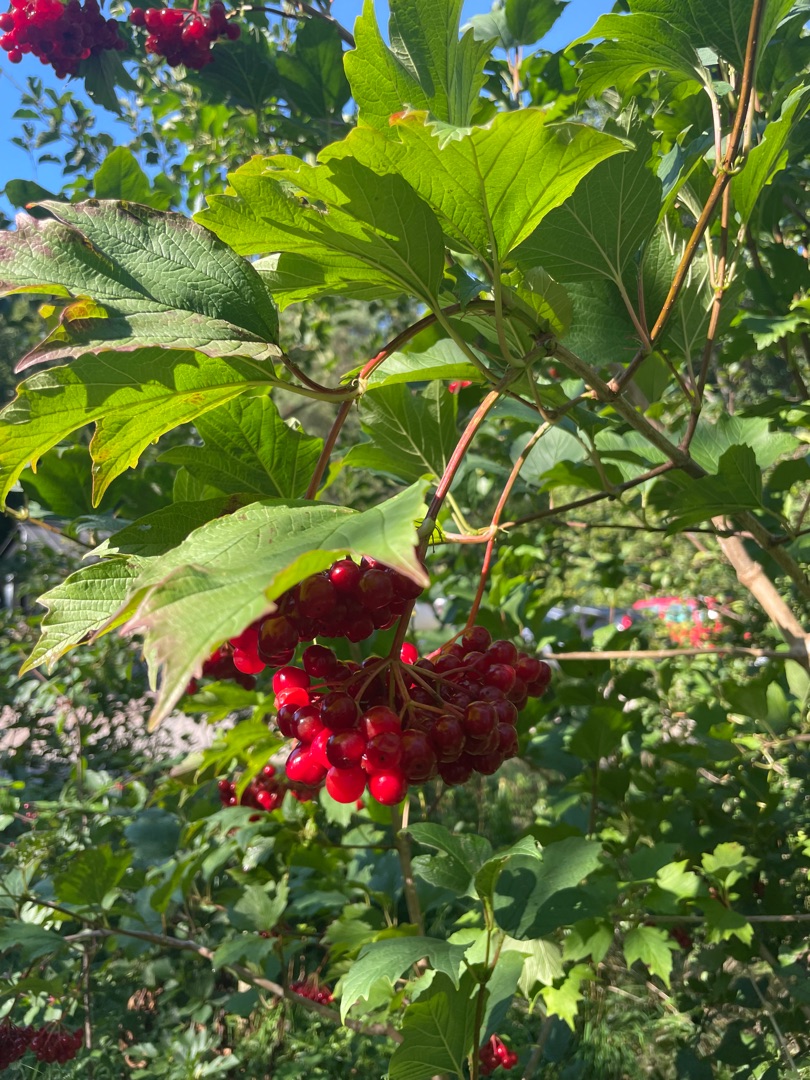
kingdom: Plantae
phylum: Tracheophyta
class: Magnoliopsida
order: Dipsacales
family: Viburnaceae
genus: Viburnum
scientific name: Viburnum opulus
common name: Kvalkved
